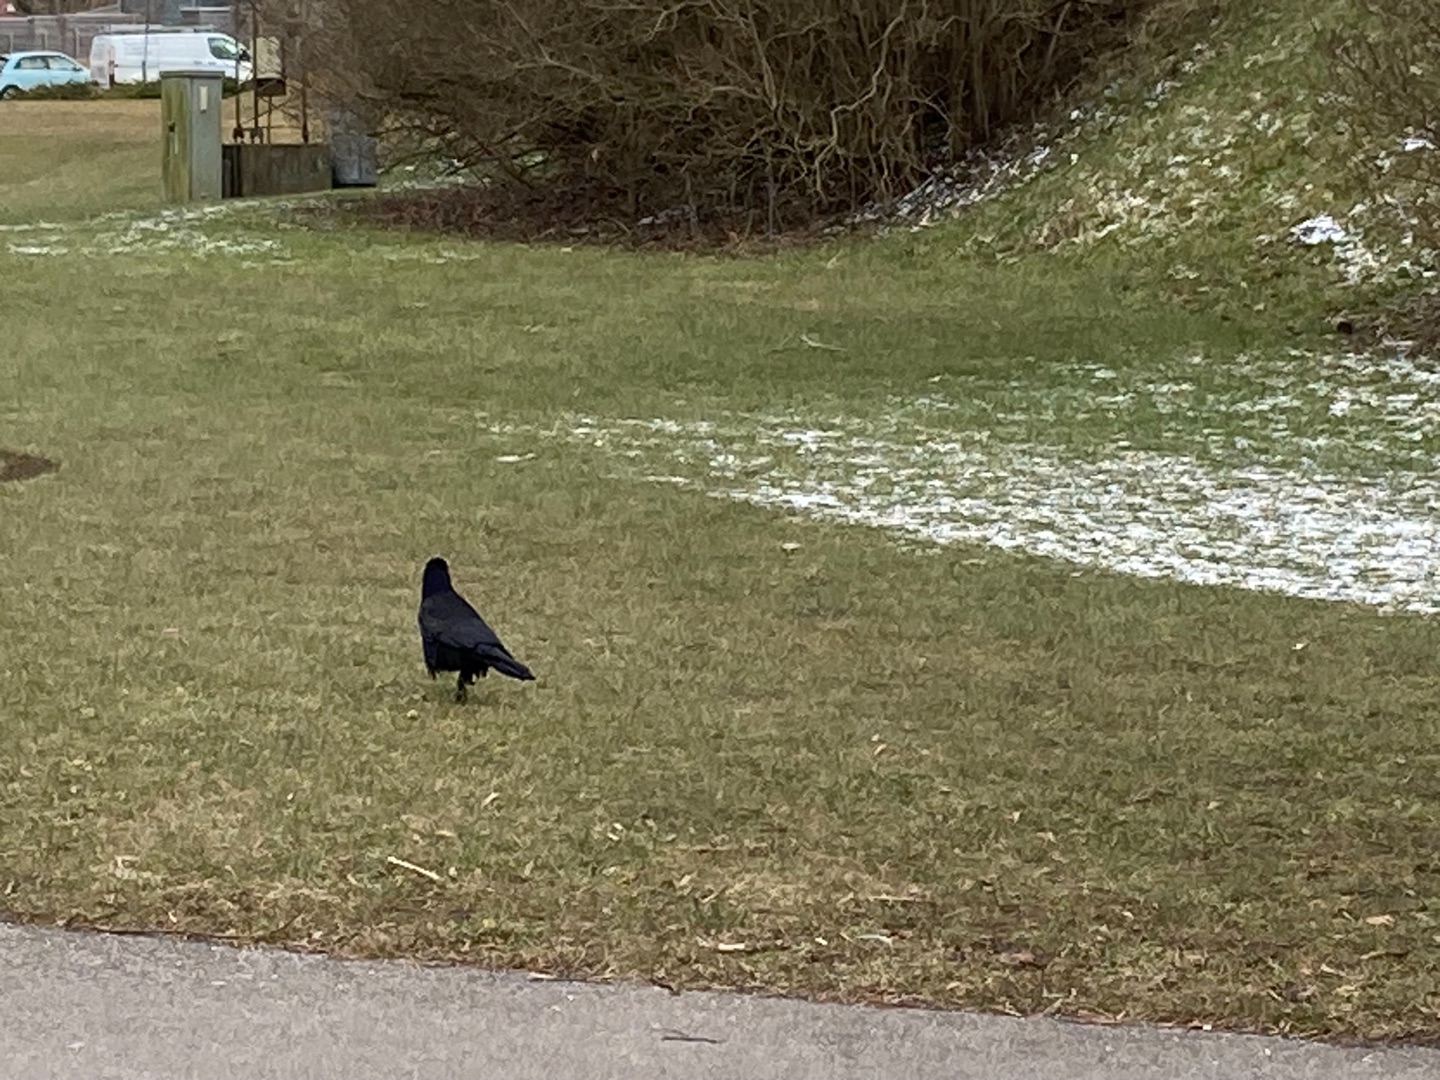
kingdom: Animalia
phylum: Chordata
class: Aves
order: Passeriformes
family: Corvidae
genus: Corvus
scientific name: Corvus frugilegus
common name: Råge
